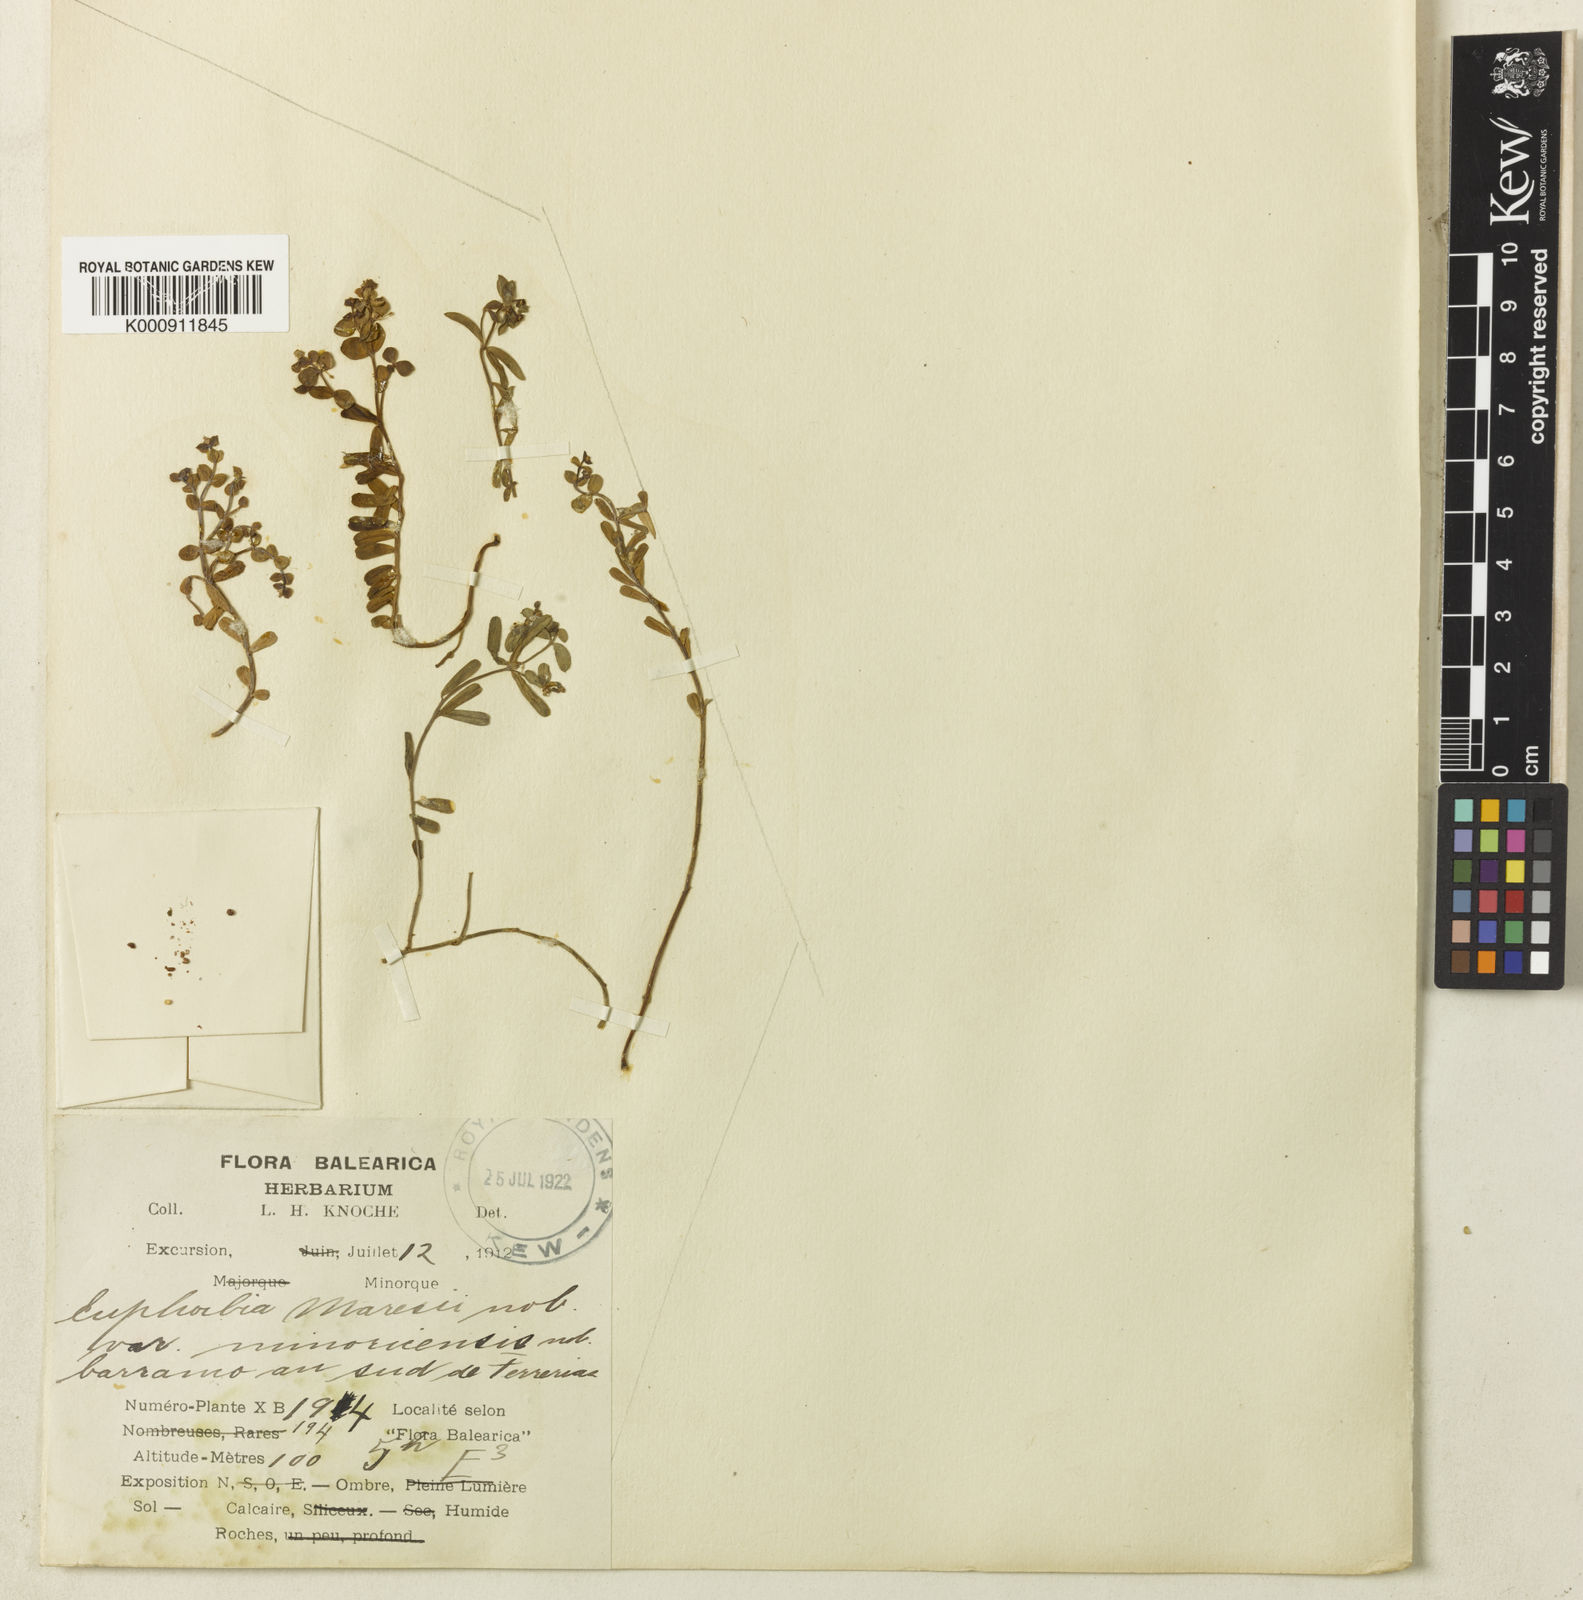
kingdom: Plantae
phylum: Tracheophyta
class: Magnoliopsida
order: Malpighiales
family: Euphorbiaceae
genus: Euphorbia
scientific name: Euphorbia
